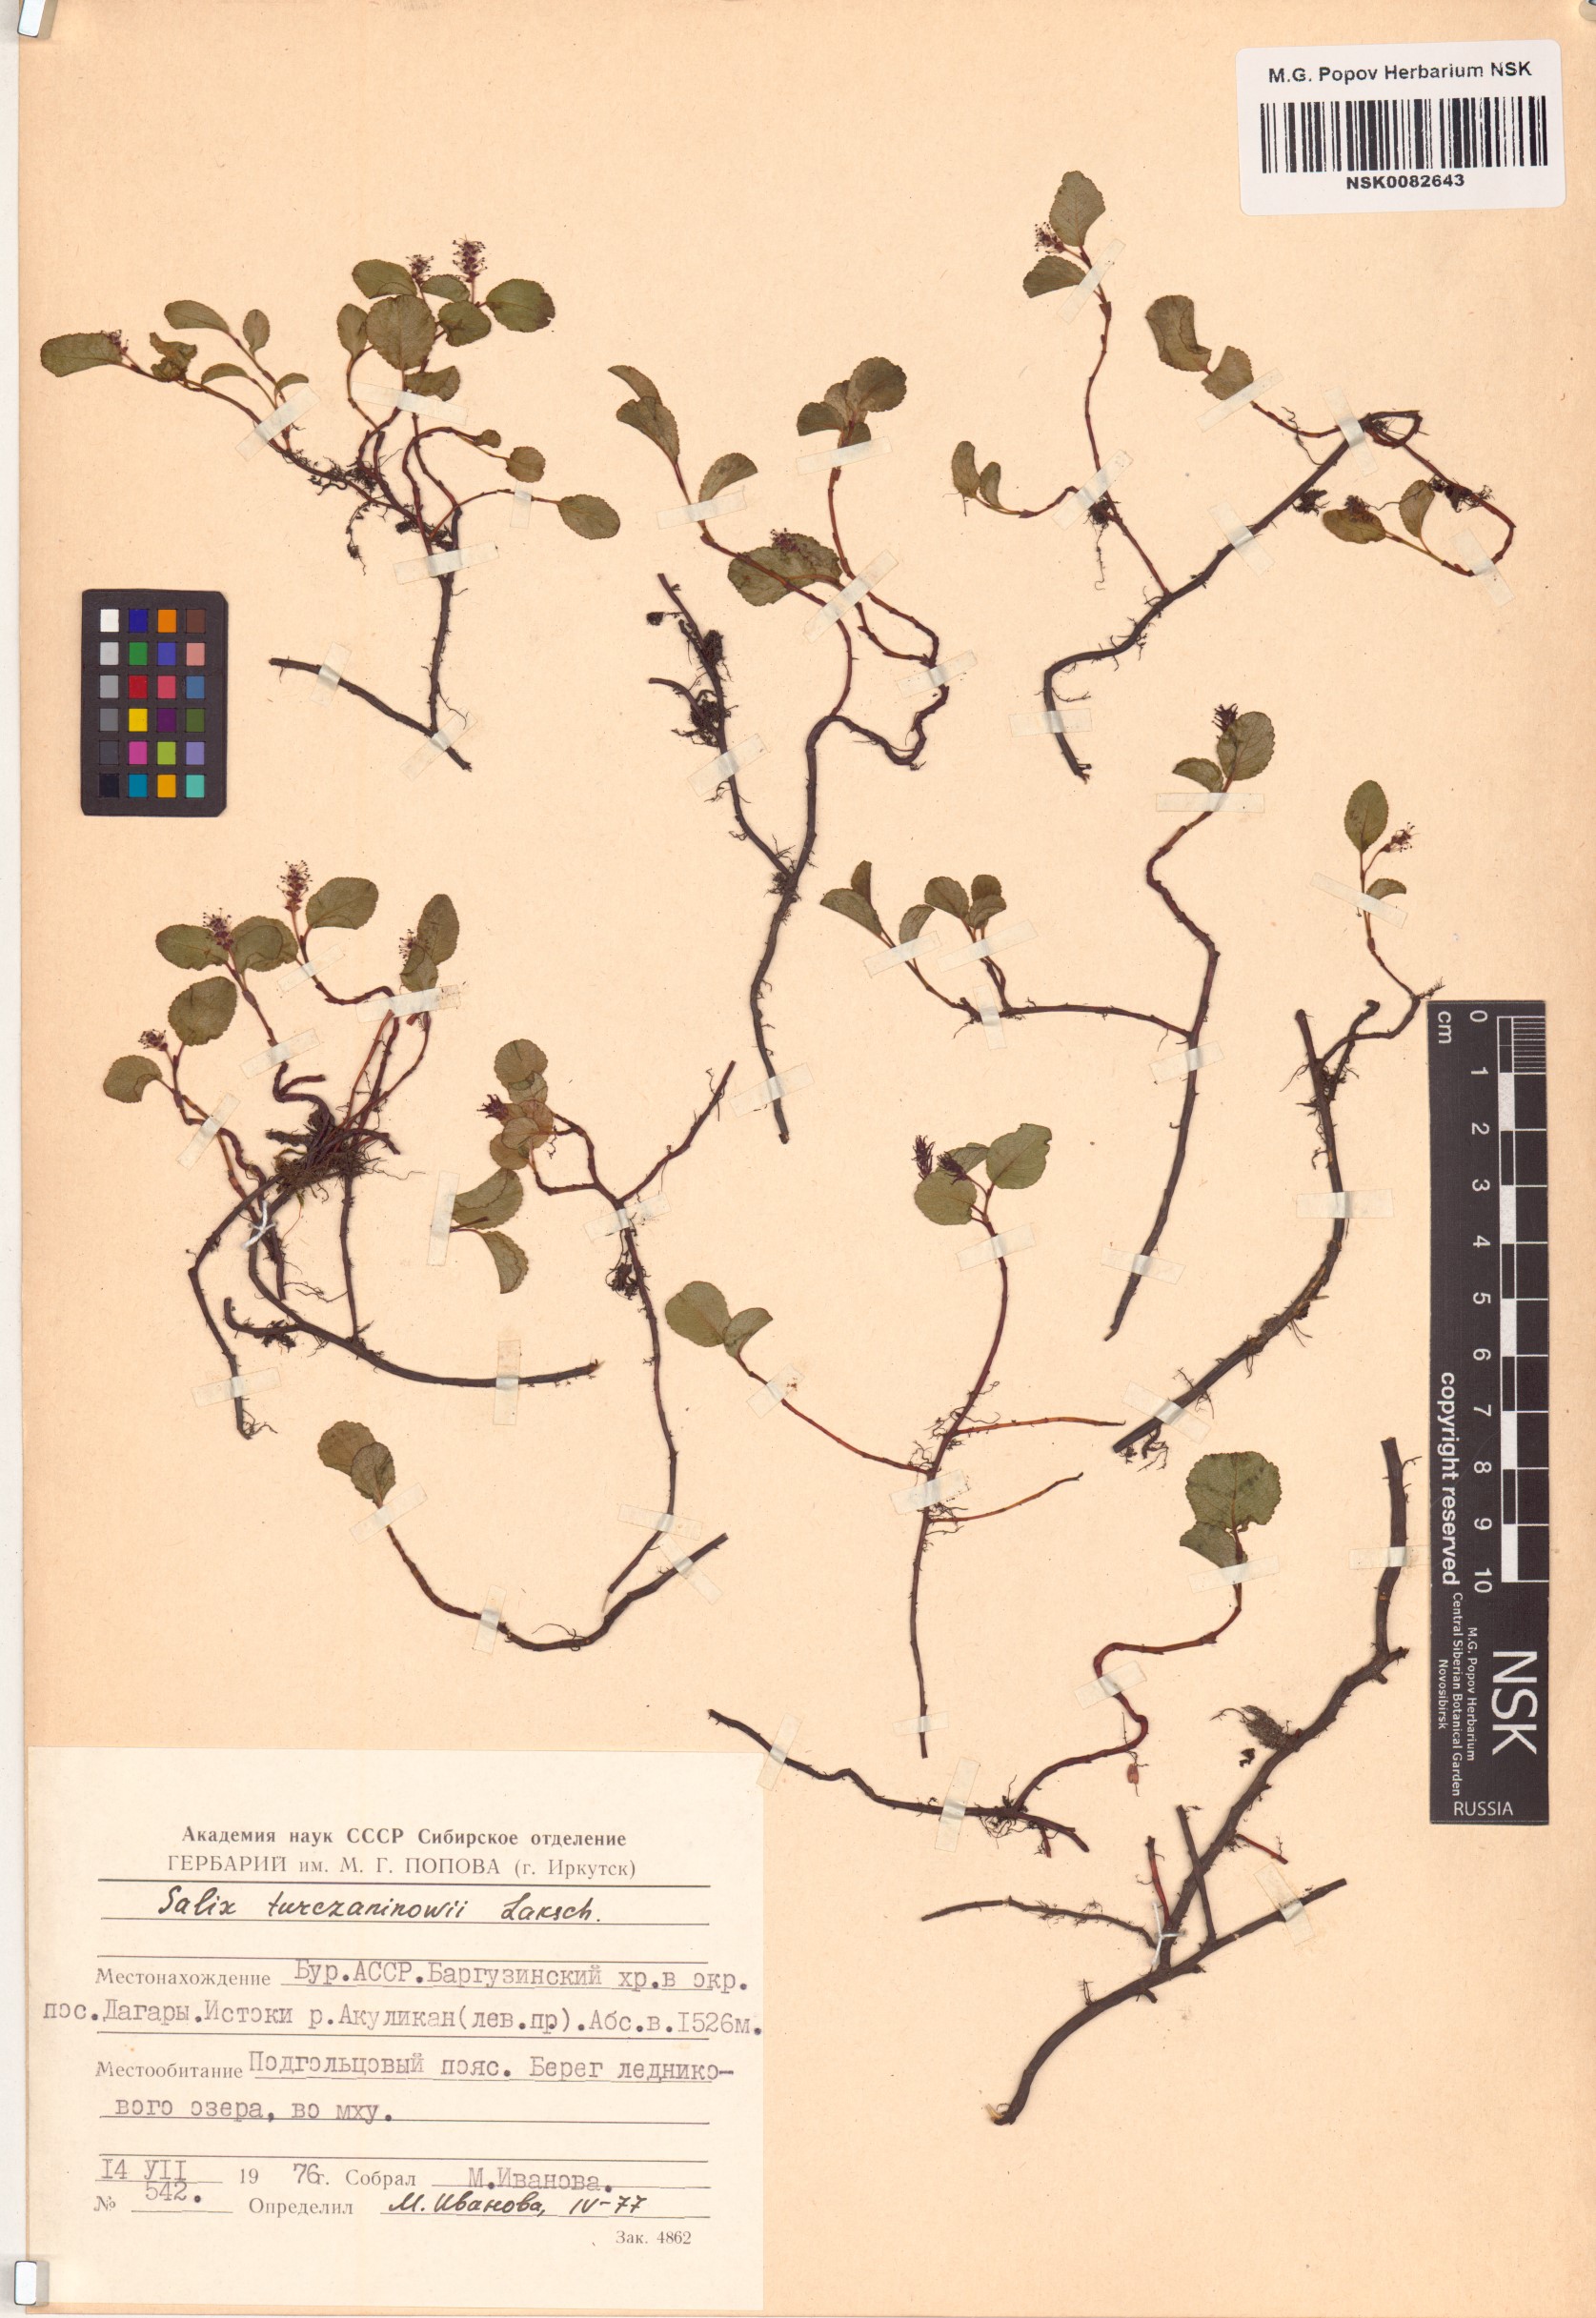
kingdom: Plantae
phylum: Tracheophyta
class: Magnoliopsida
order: Malpighiales
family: Salicaceae
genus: Salix
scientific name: Salix turczaninowii
